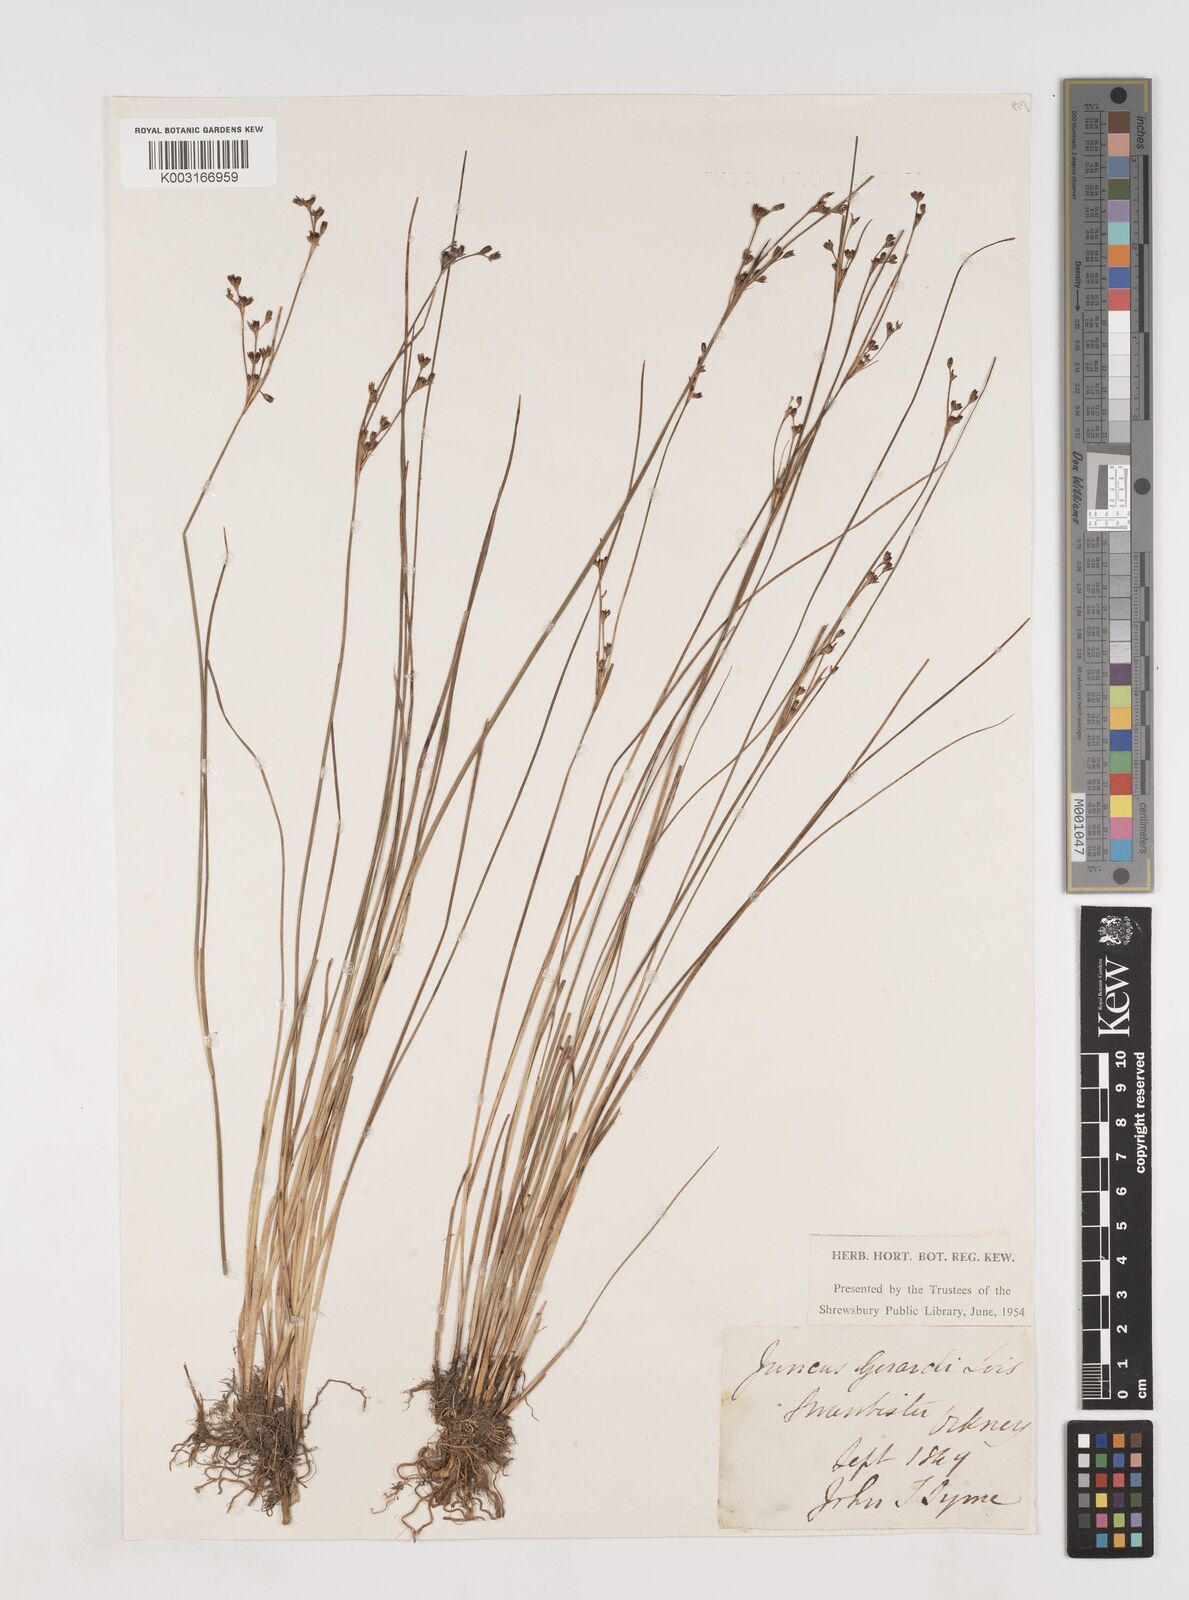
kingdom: Plantae
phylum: Tracheophyta
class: Liliopsida
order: Poales
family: Juncaceae
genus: Juncus
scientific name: Juncus gerardi
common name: Saltmarsh rush
